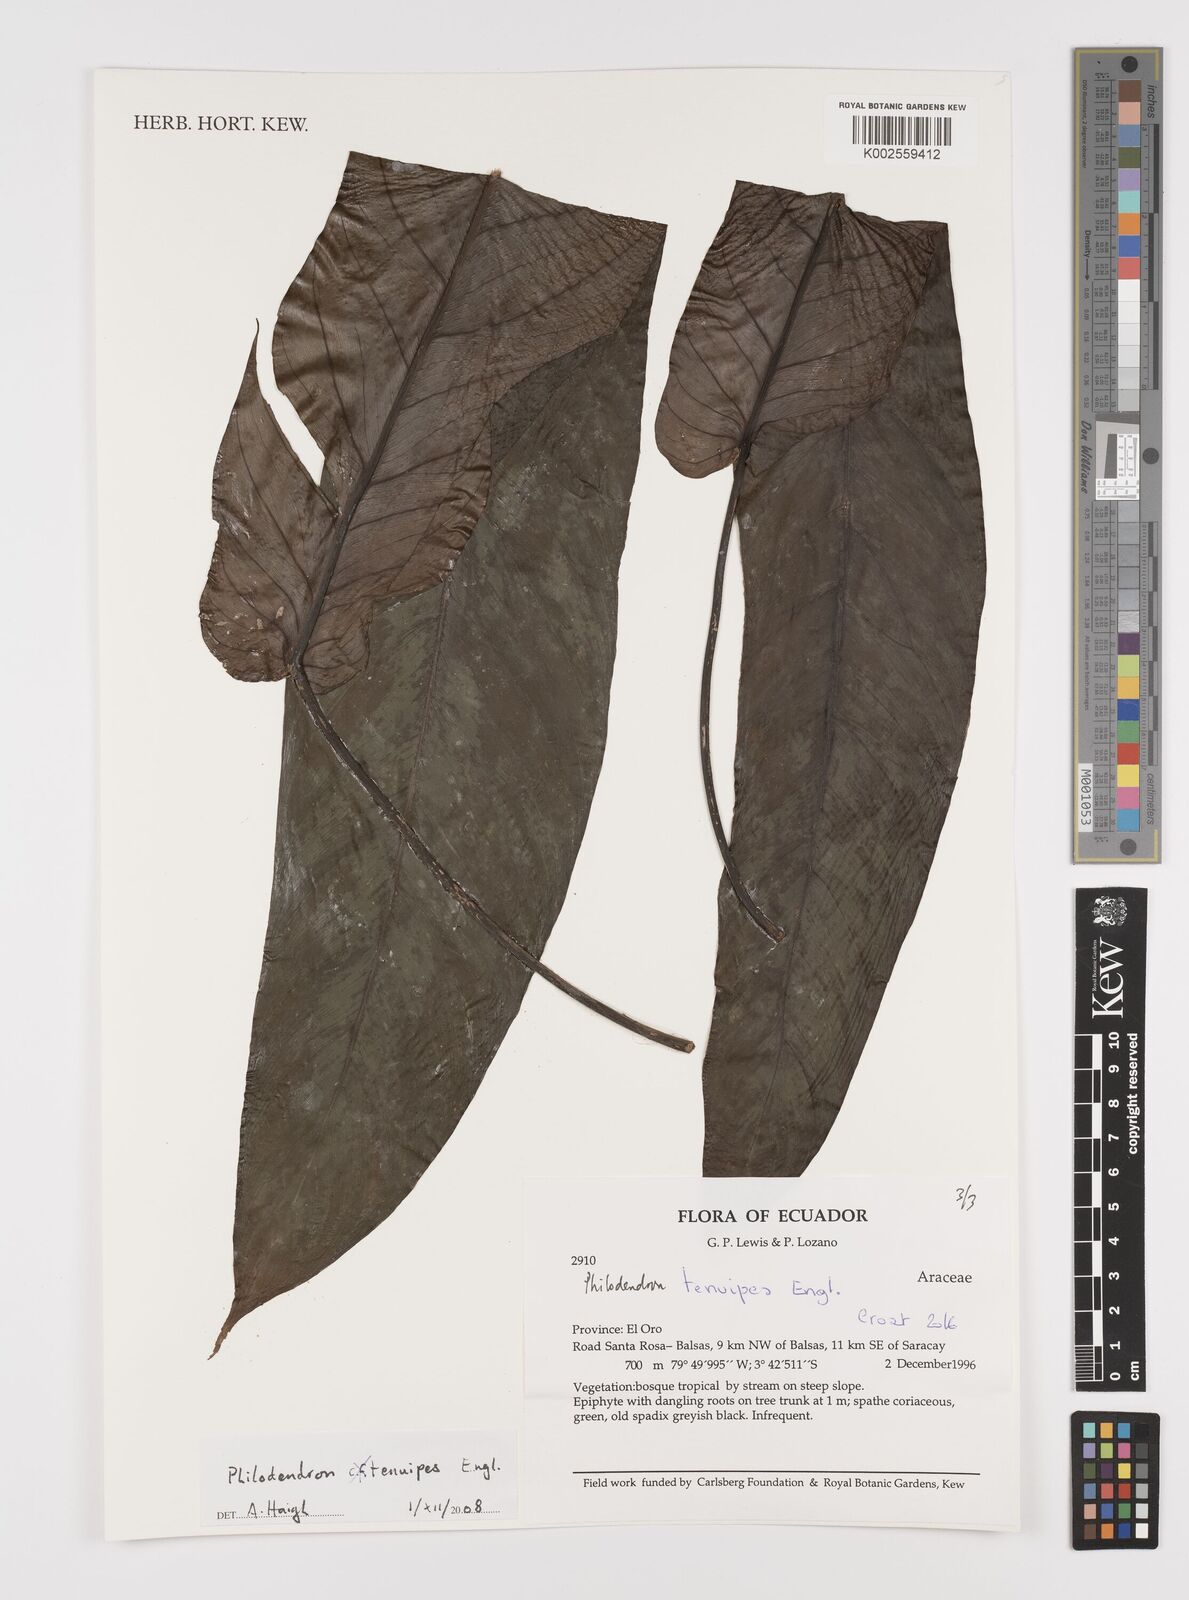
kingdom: Plantae
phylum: Tracheophyta
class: Liliopsida
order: Alismatales
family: Araceae
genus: Philodendron
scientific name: Philodendron tenuipes
